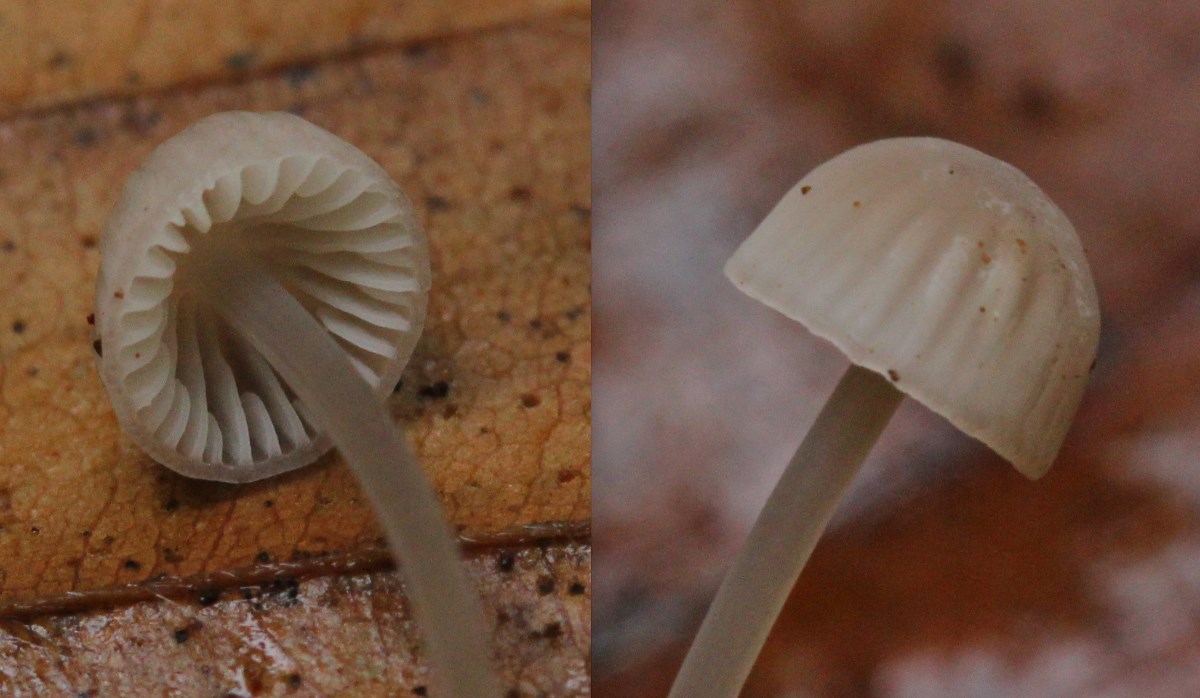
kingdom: Fungi
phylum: Basidiomycota
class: Agaricomycetes
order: Agaricales
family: Mycenaceae
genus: Mycena
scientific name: Mycena
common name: huesvamp
